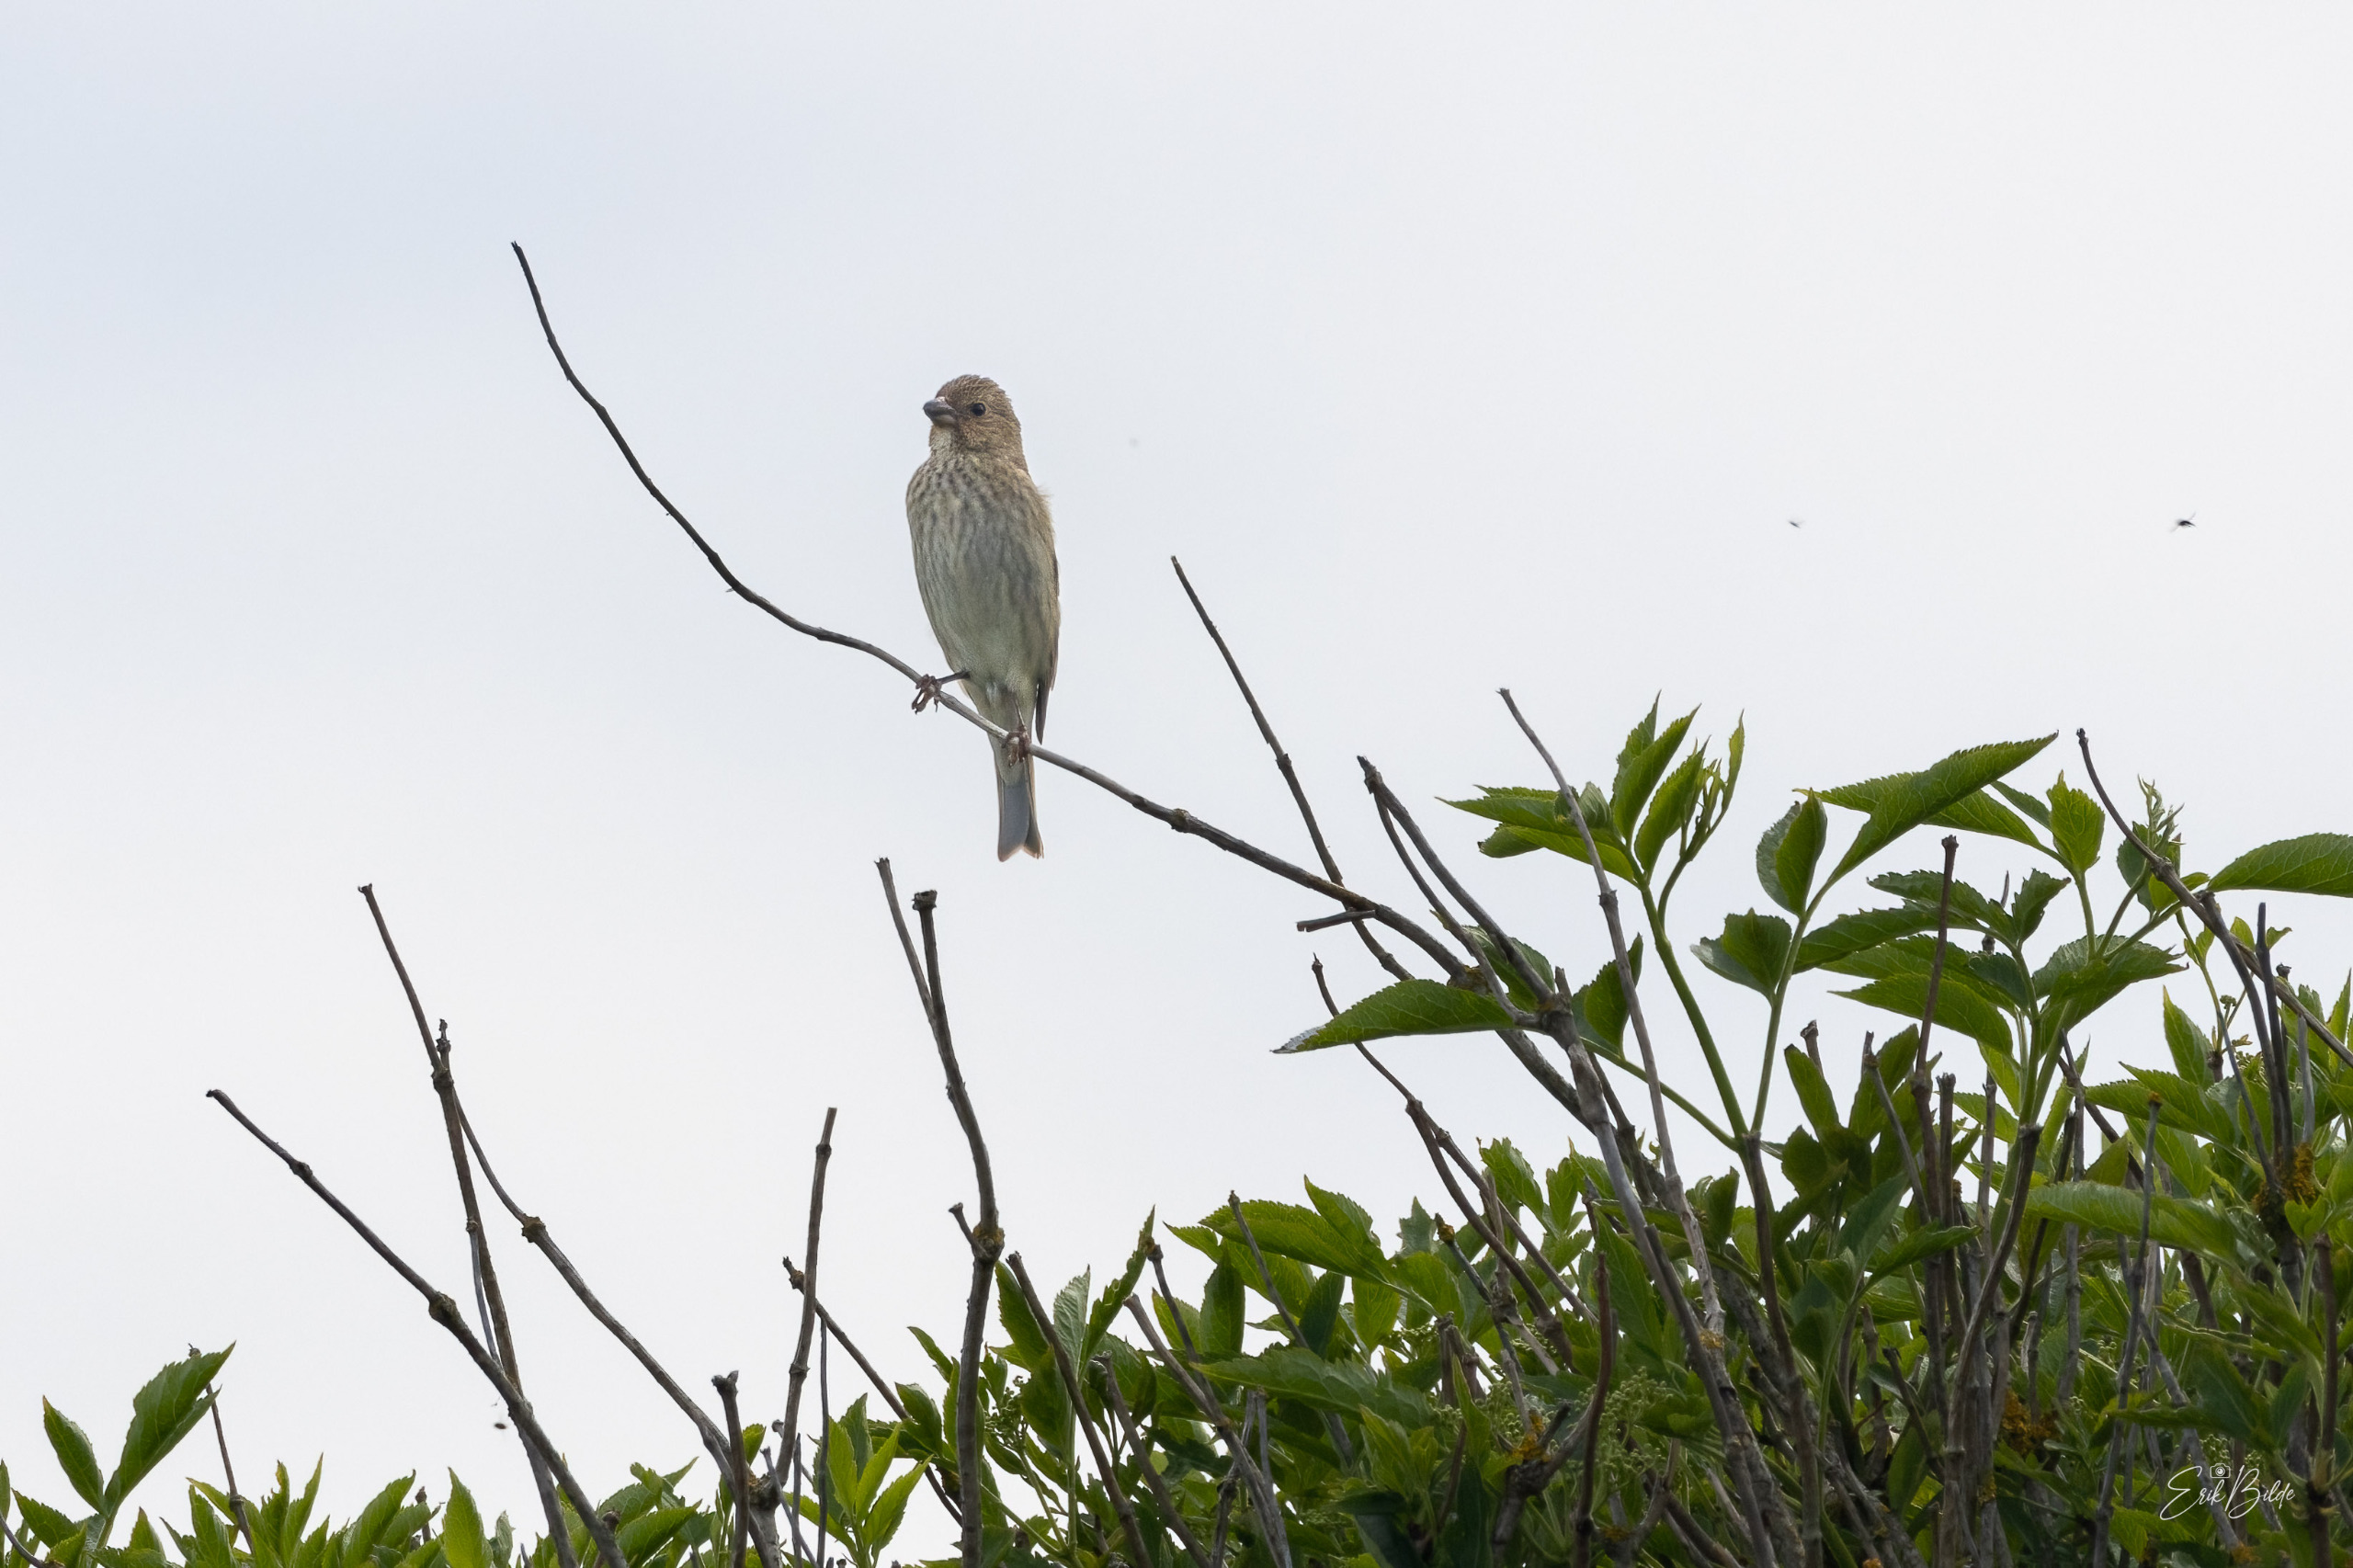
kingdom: Animalia
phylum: Chordata
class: Aves
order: Passeriformes
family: Fringillidae
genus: Carpodacus
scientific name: Carpodacus erythrinus
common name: Karmindompap
